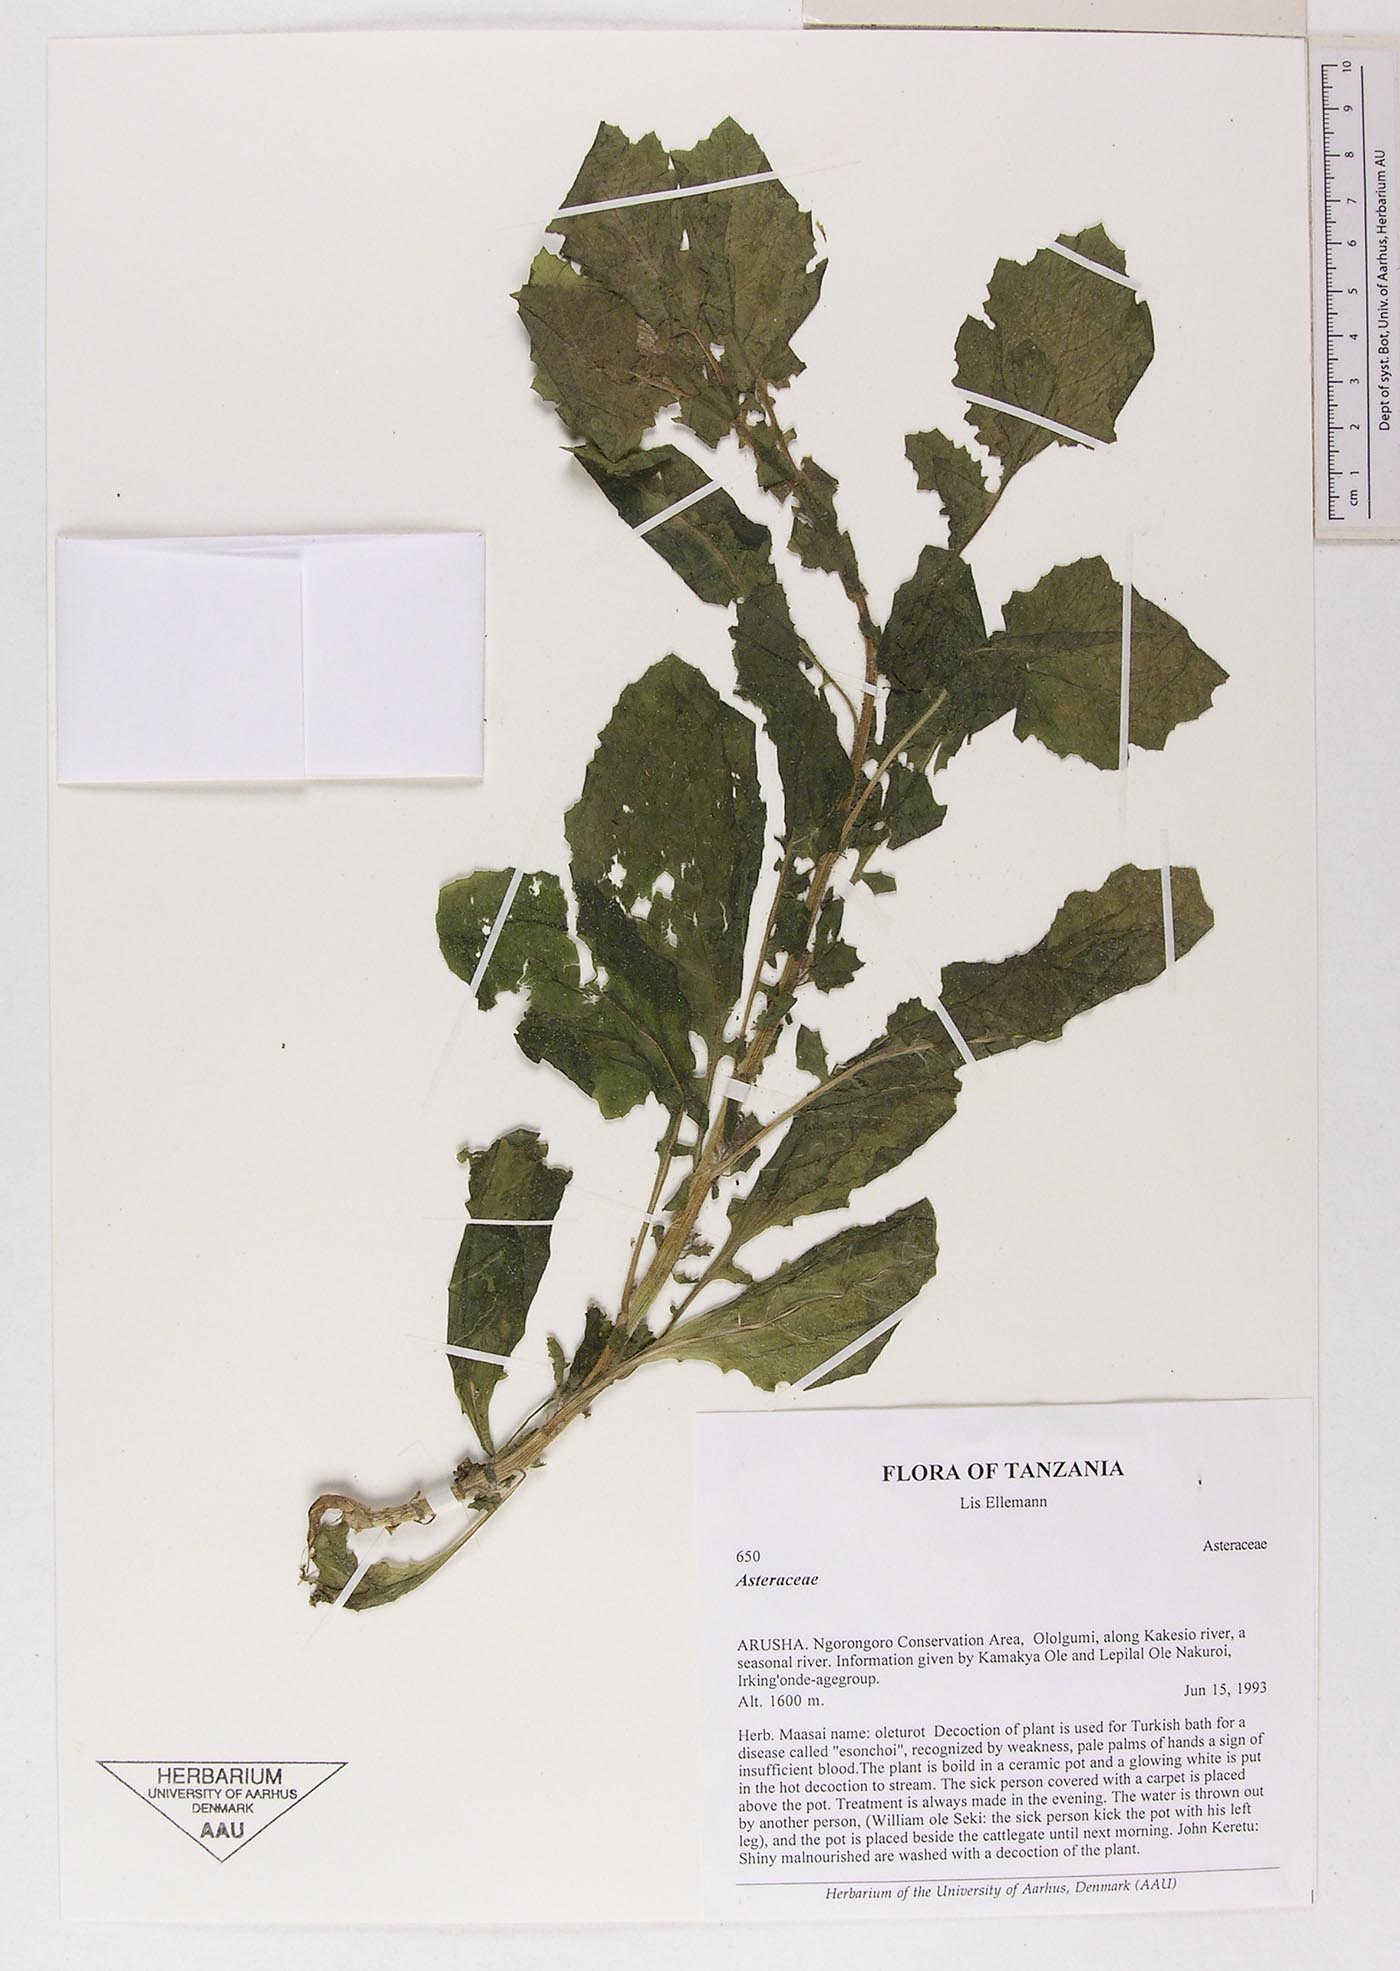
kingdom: Plantae
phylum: Tracheophyta
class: Magnoliopsida
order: Asterales
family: Asteraceae
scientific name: Asteraceae
